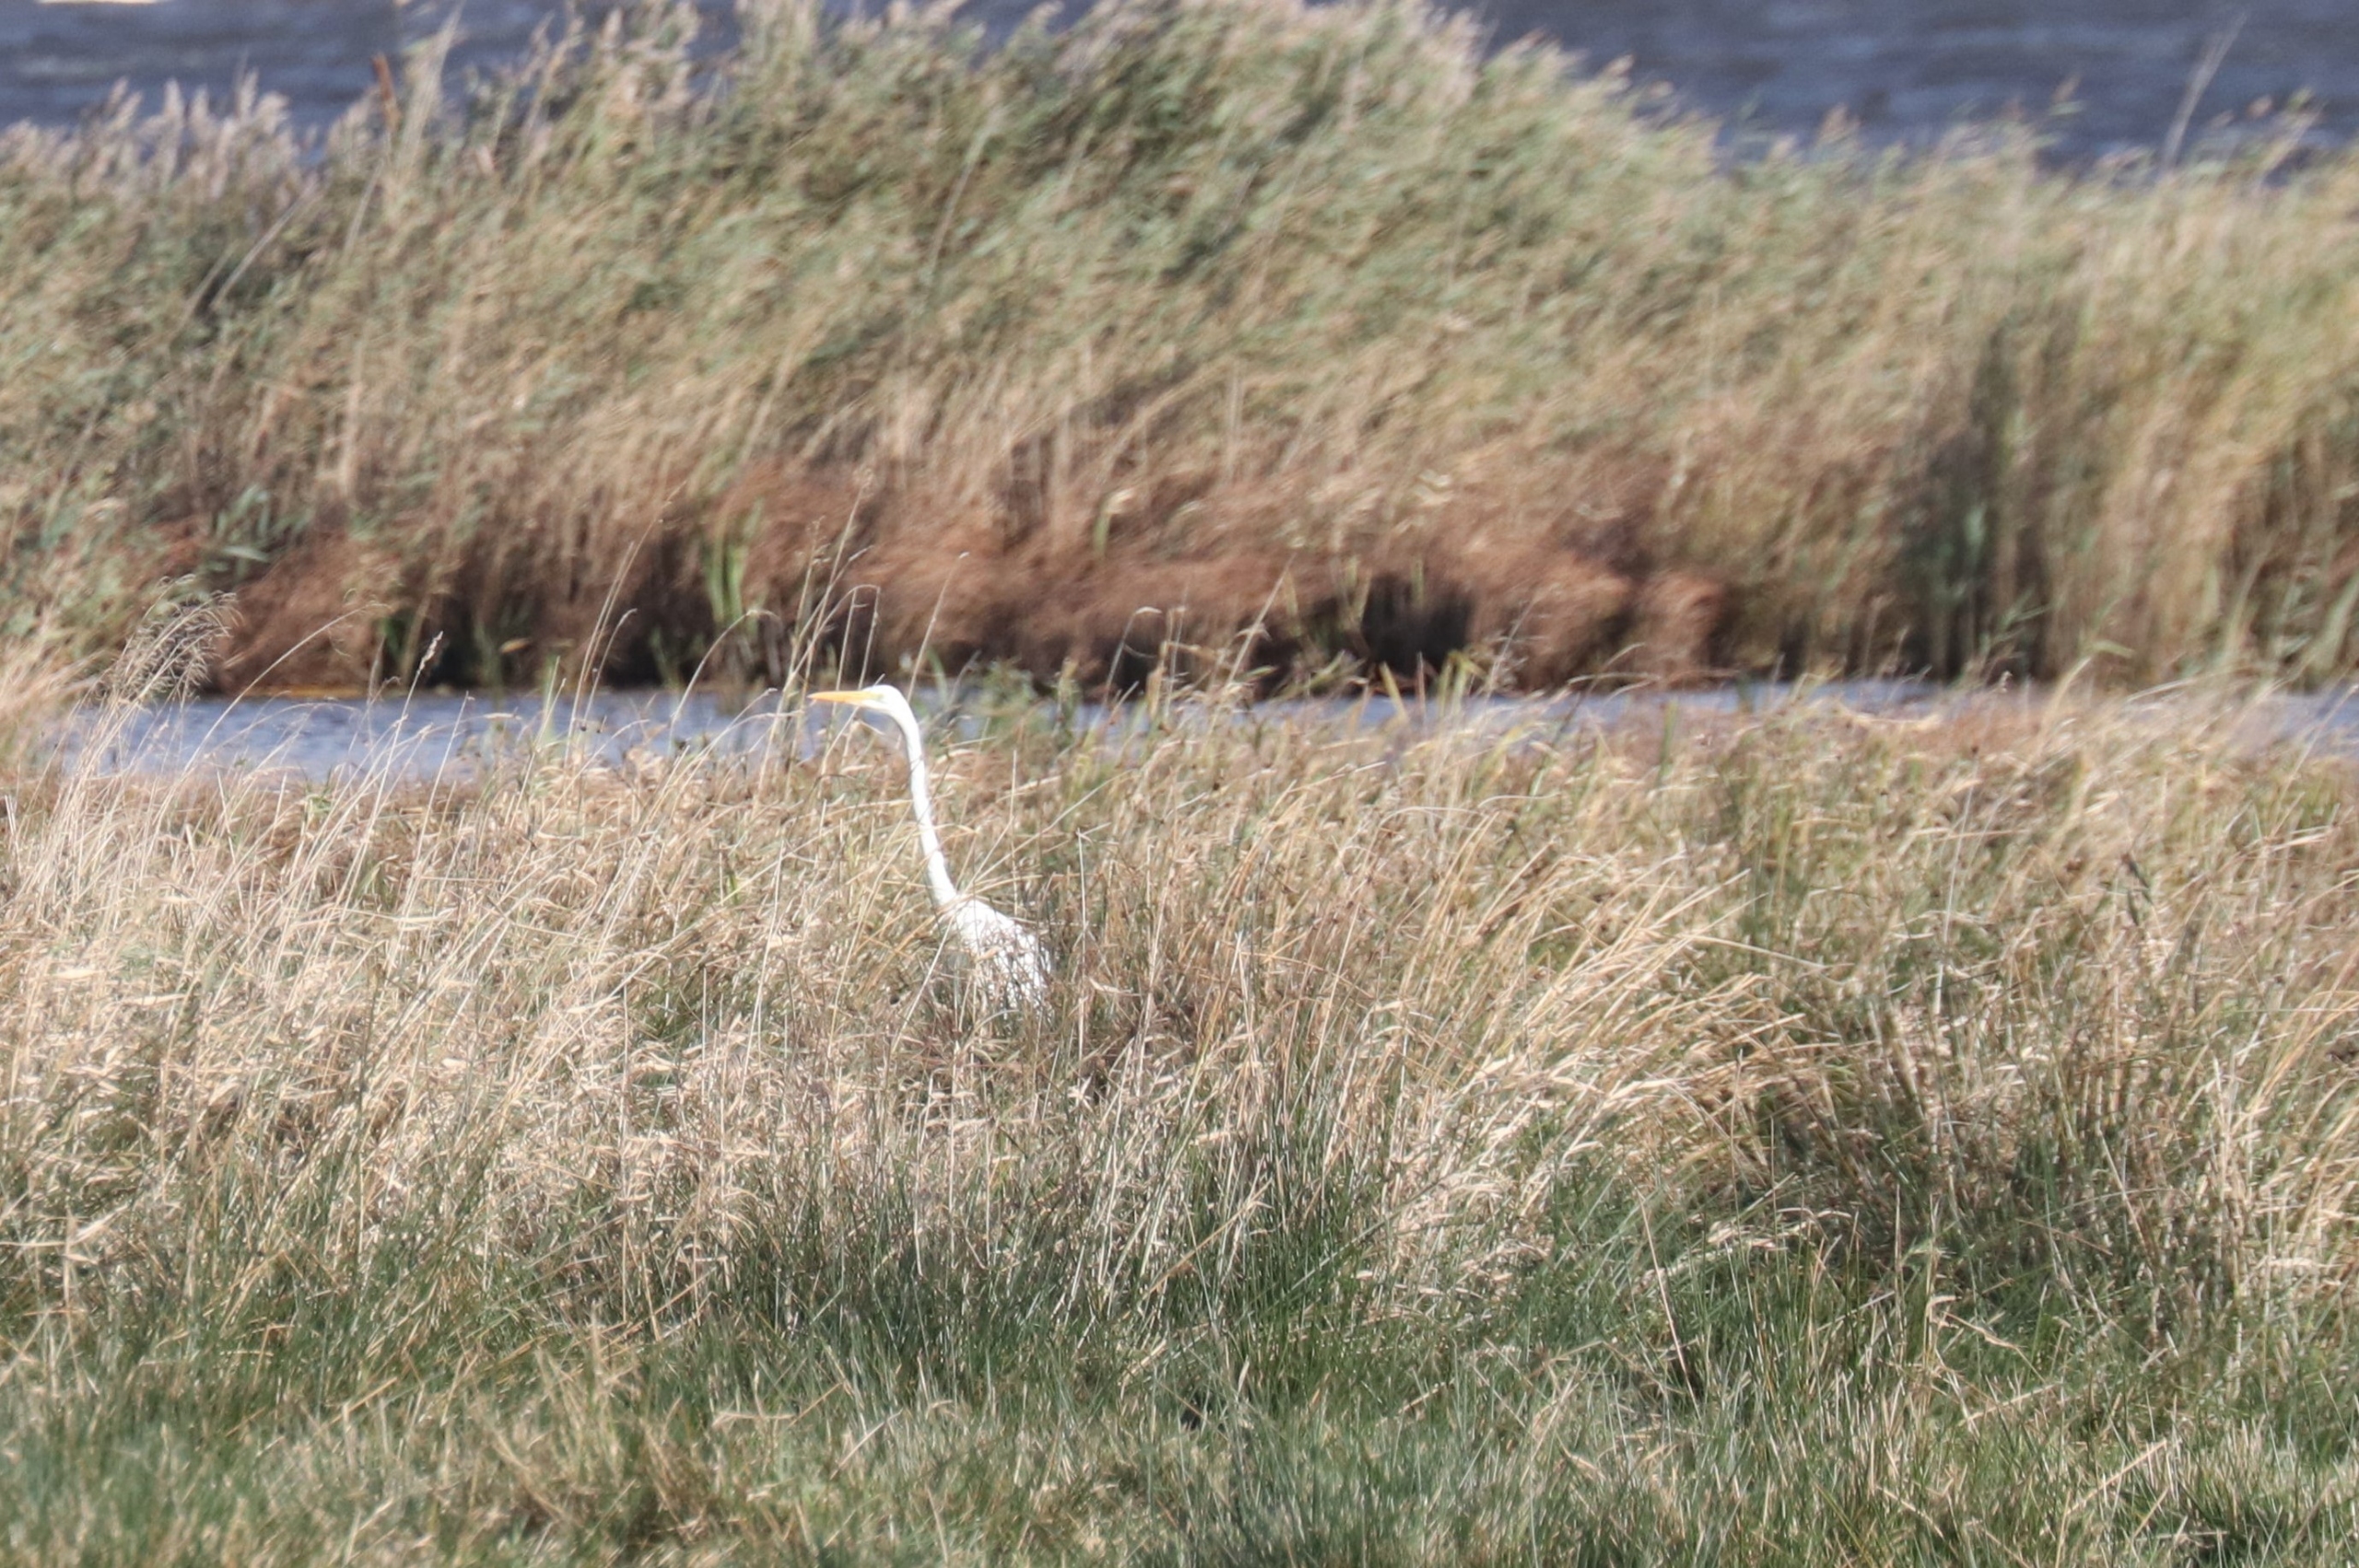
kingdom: Animalia
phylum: Chordata
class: Aves
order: Pelecaniformes
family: Ardeidae
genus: Ardea
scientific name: Ardea alba
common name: Sølvhejre
